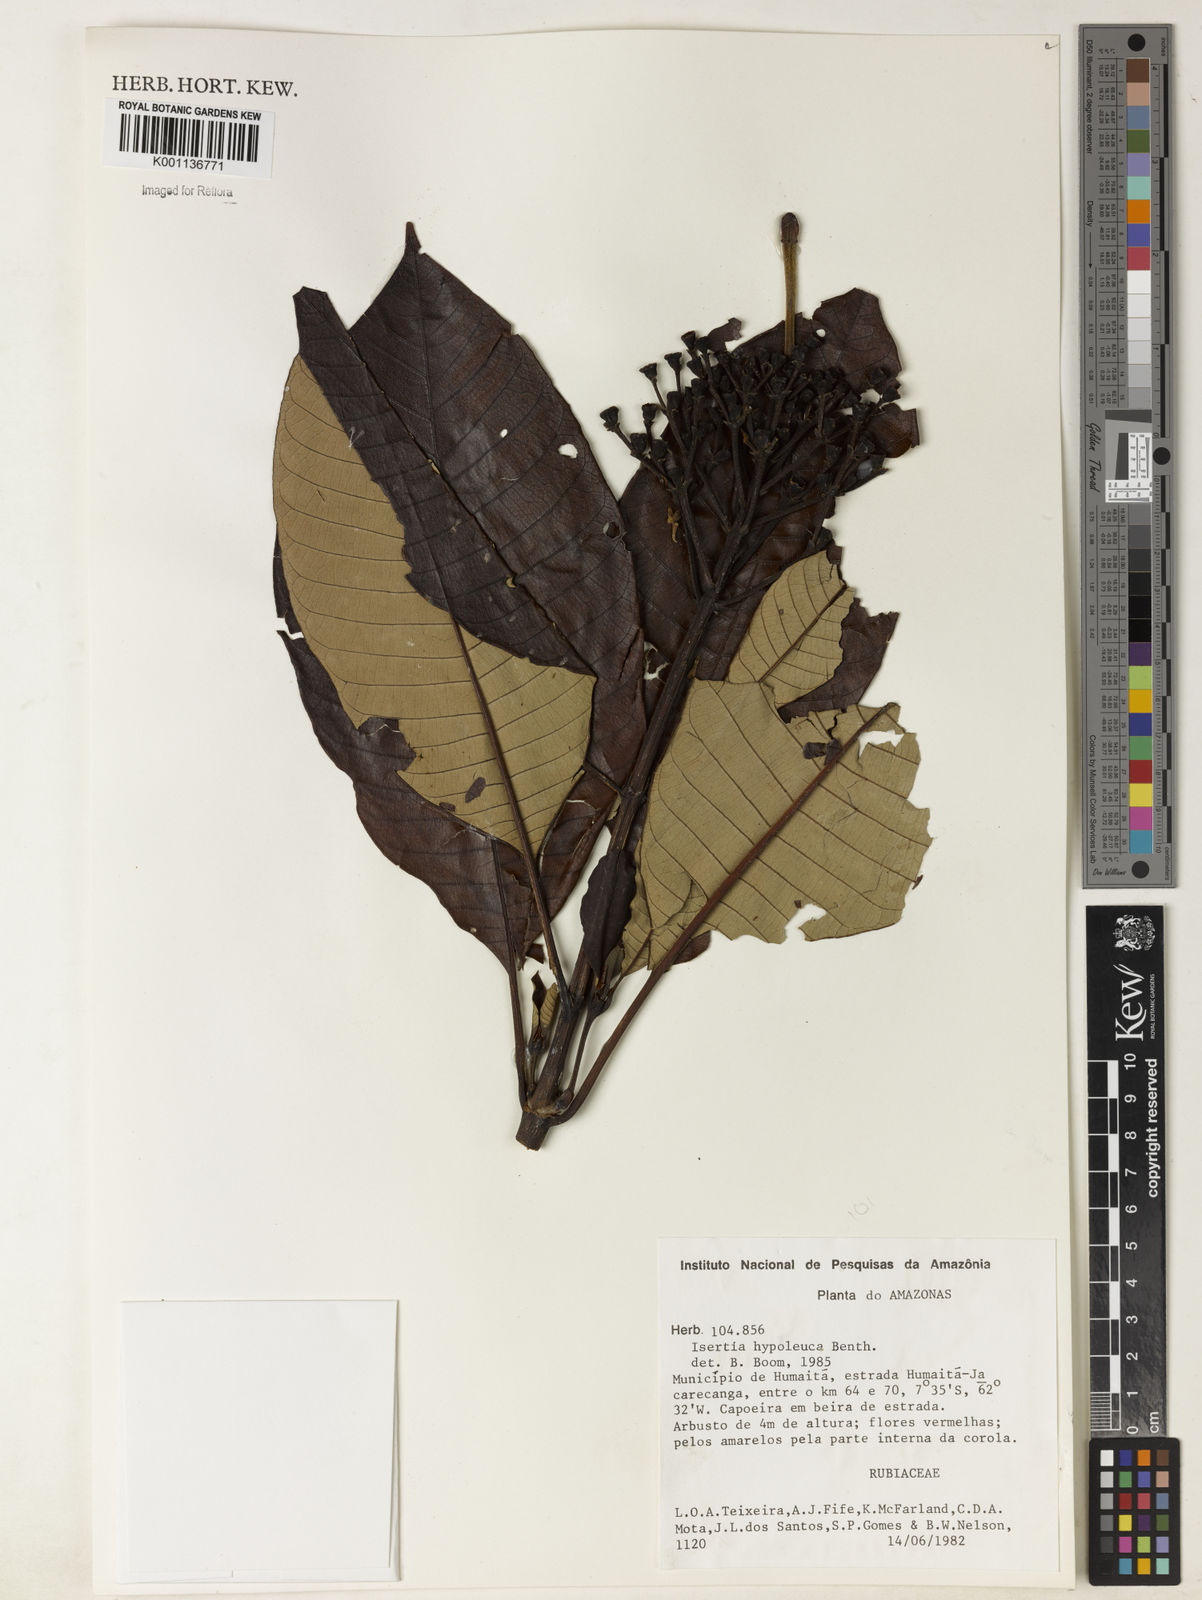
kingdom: Plantae
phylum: Tracheophyta
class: Magnoliopsida
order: Gentianales
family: Rubiaceae
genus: Isertia
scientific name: Isertia hypoleuca
